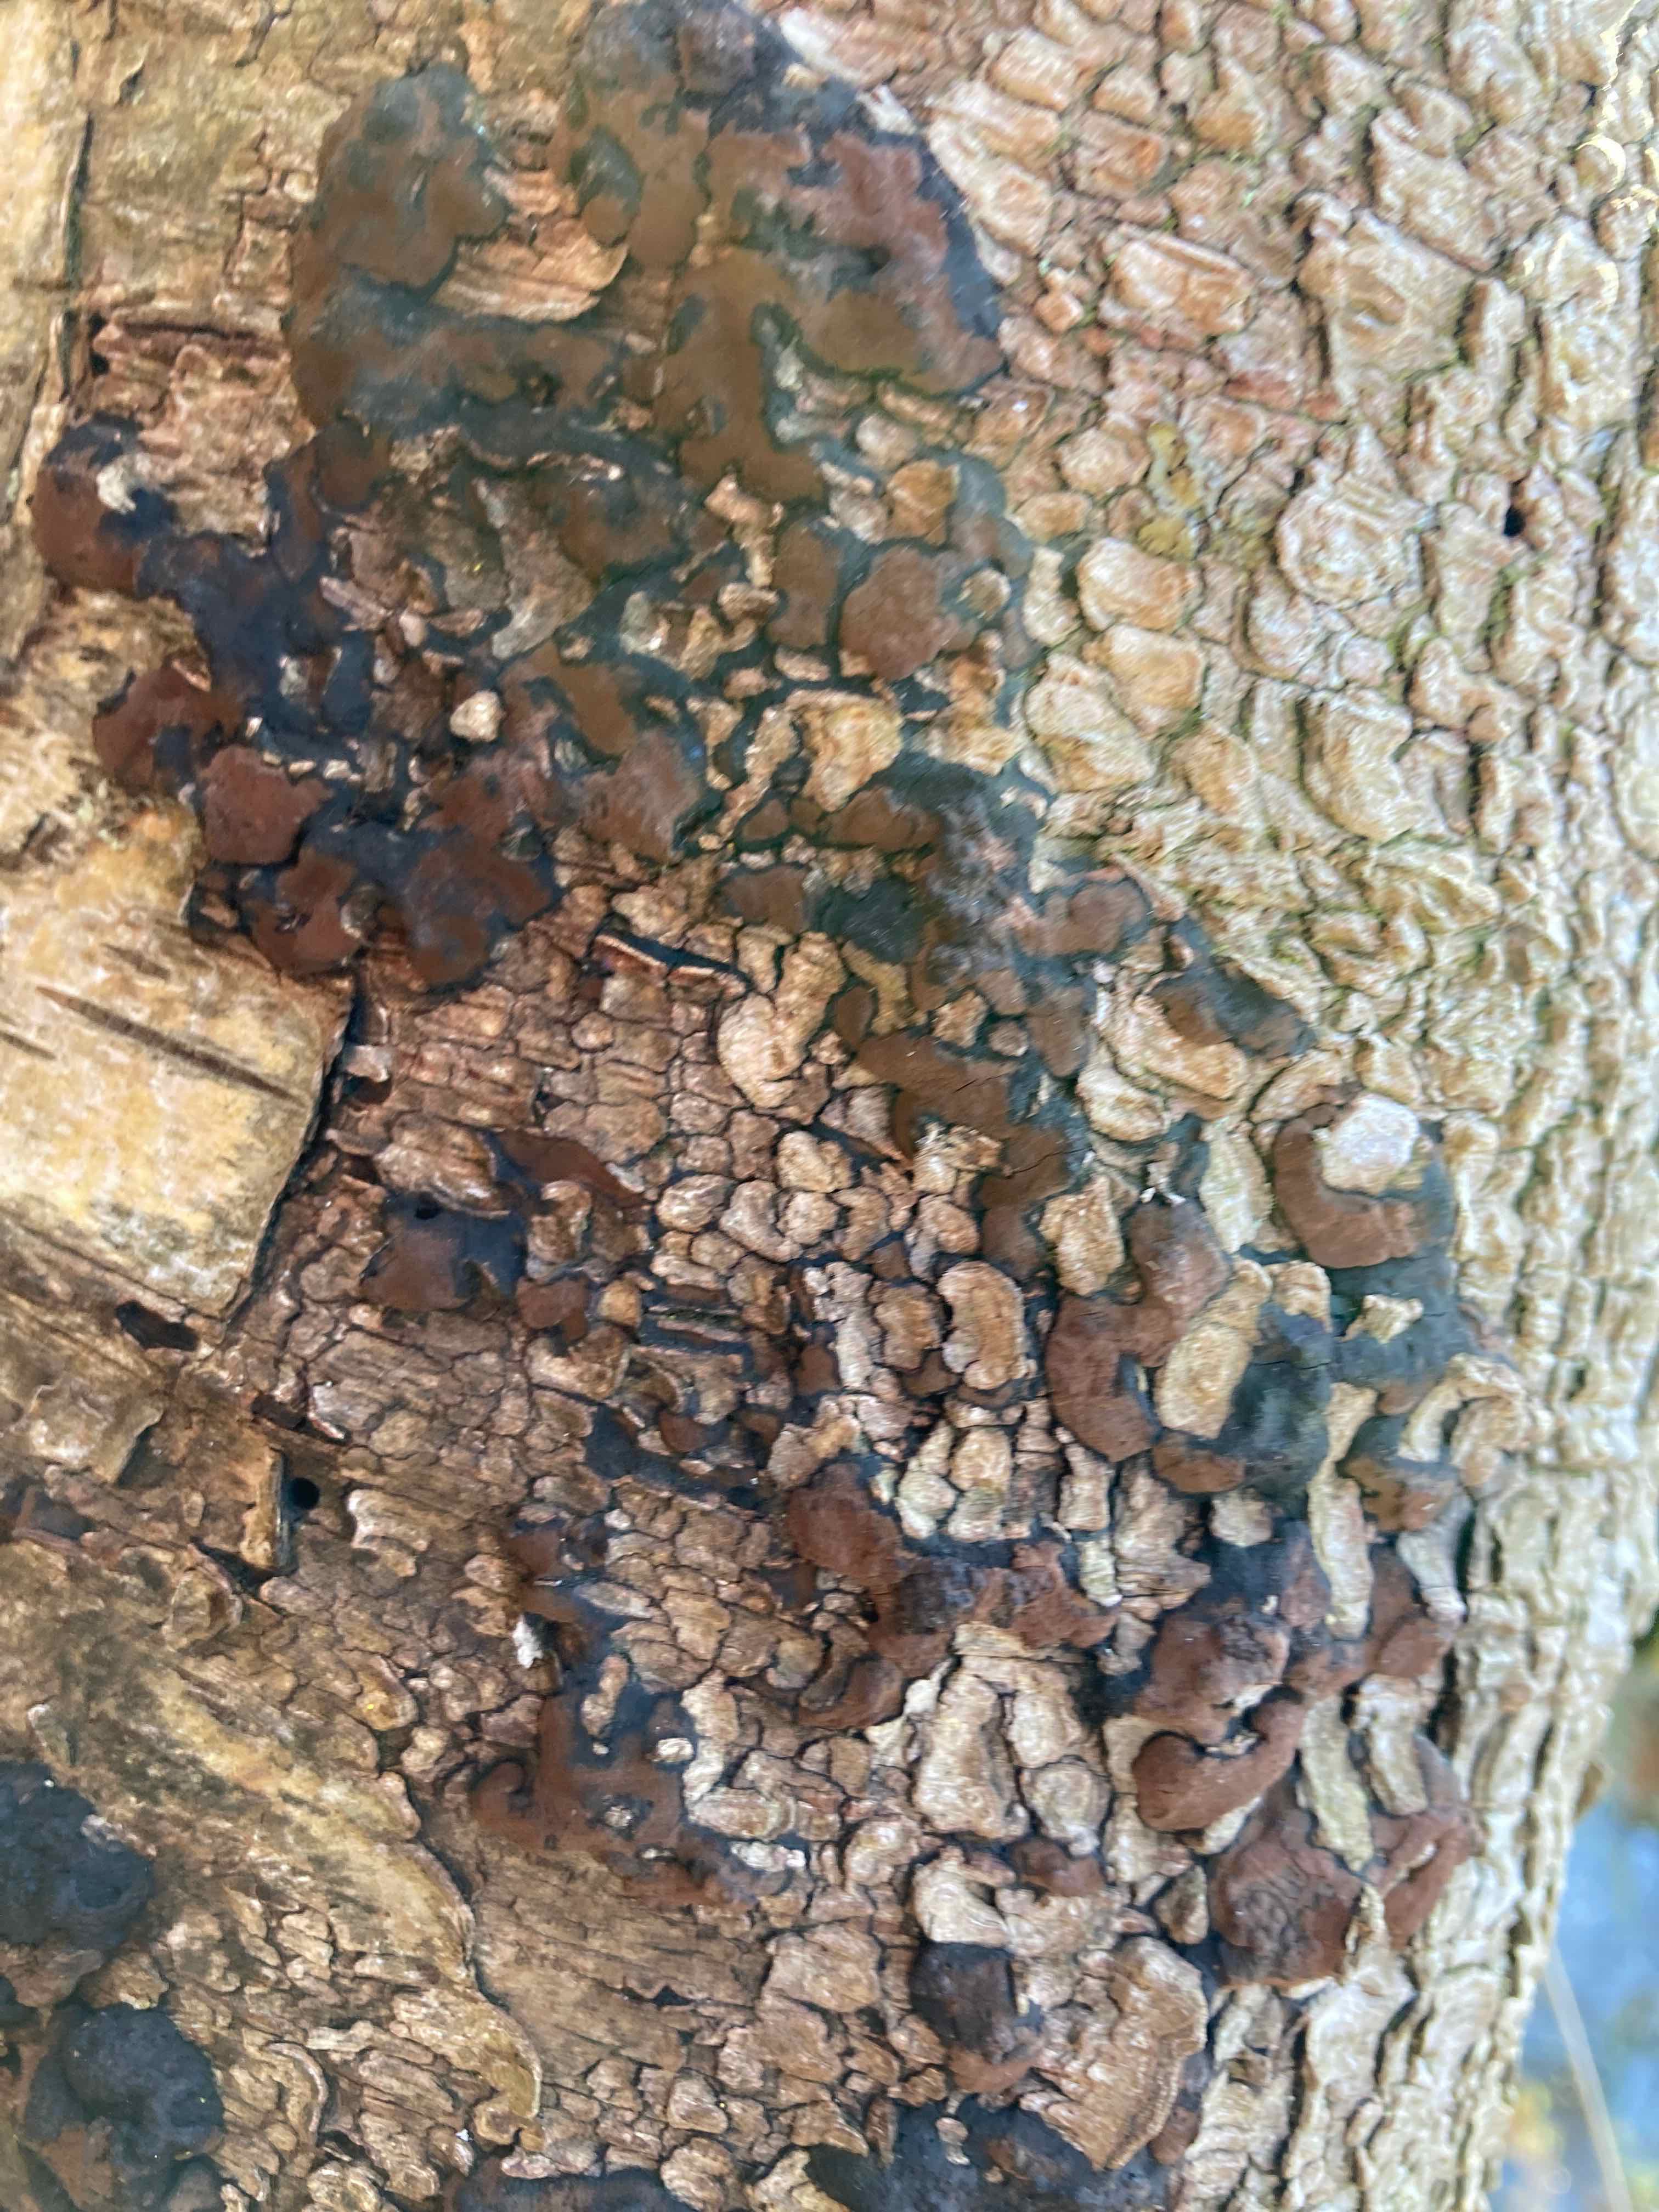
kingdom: Fungi
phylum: Ascomycota
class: Sordariomycetes
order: Xylariales
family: Hypoxylaceae
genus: Jackrogersella
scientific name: Jackrogersella multiformis
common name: foranderlig kulbær
